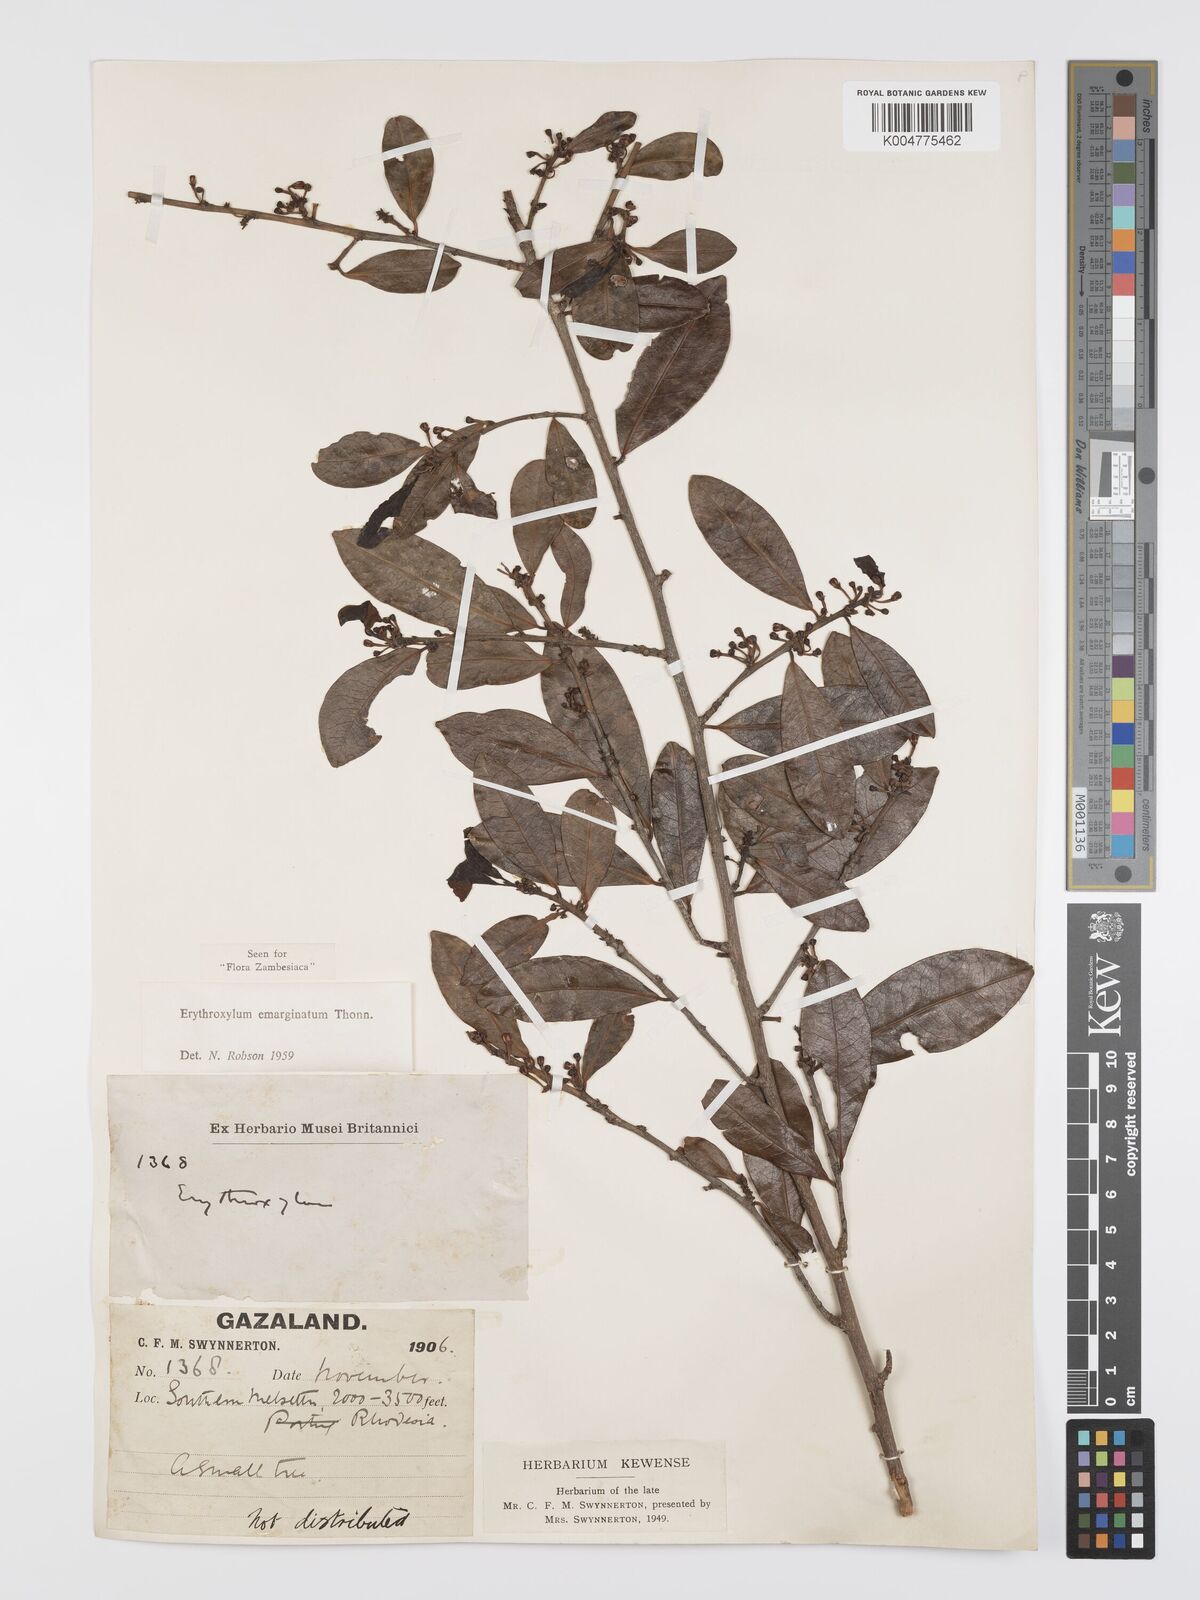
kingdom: Plantae
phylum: Tracheophyta
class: Magnoliopsida
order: Malpighiales
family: Erythroxylaceae
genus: Erythroxylum
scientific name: Erythroxylum emarginatum
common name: African coca-tree
